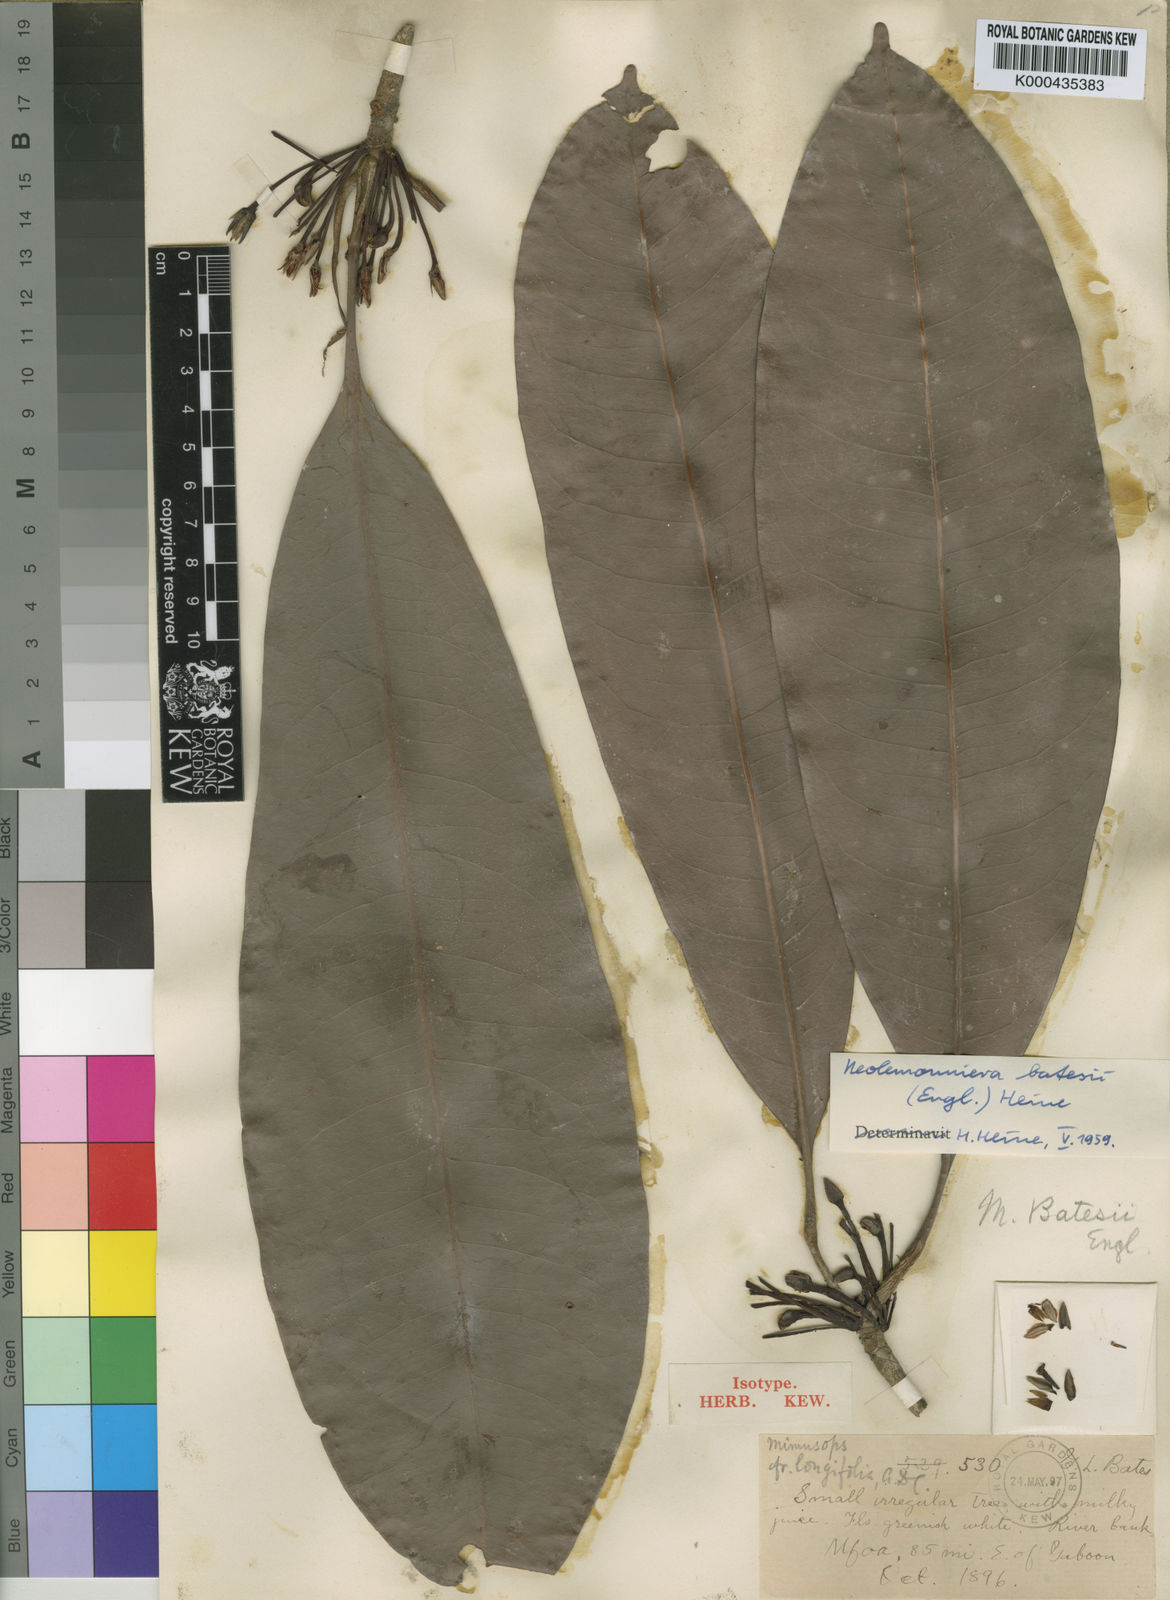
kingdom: Plantae
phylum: Tracheophyta
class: Magnoliopsida
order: Ericales
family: Sapotaceae
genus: Neolemonniera
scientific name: Neolemonniera batesii
